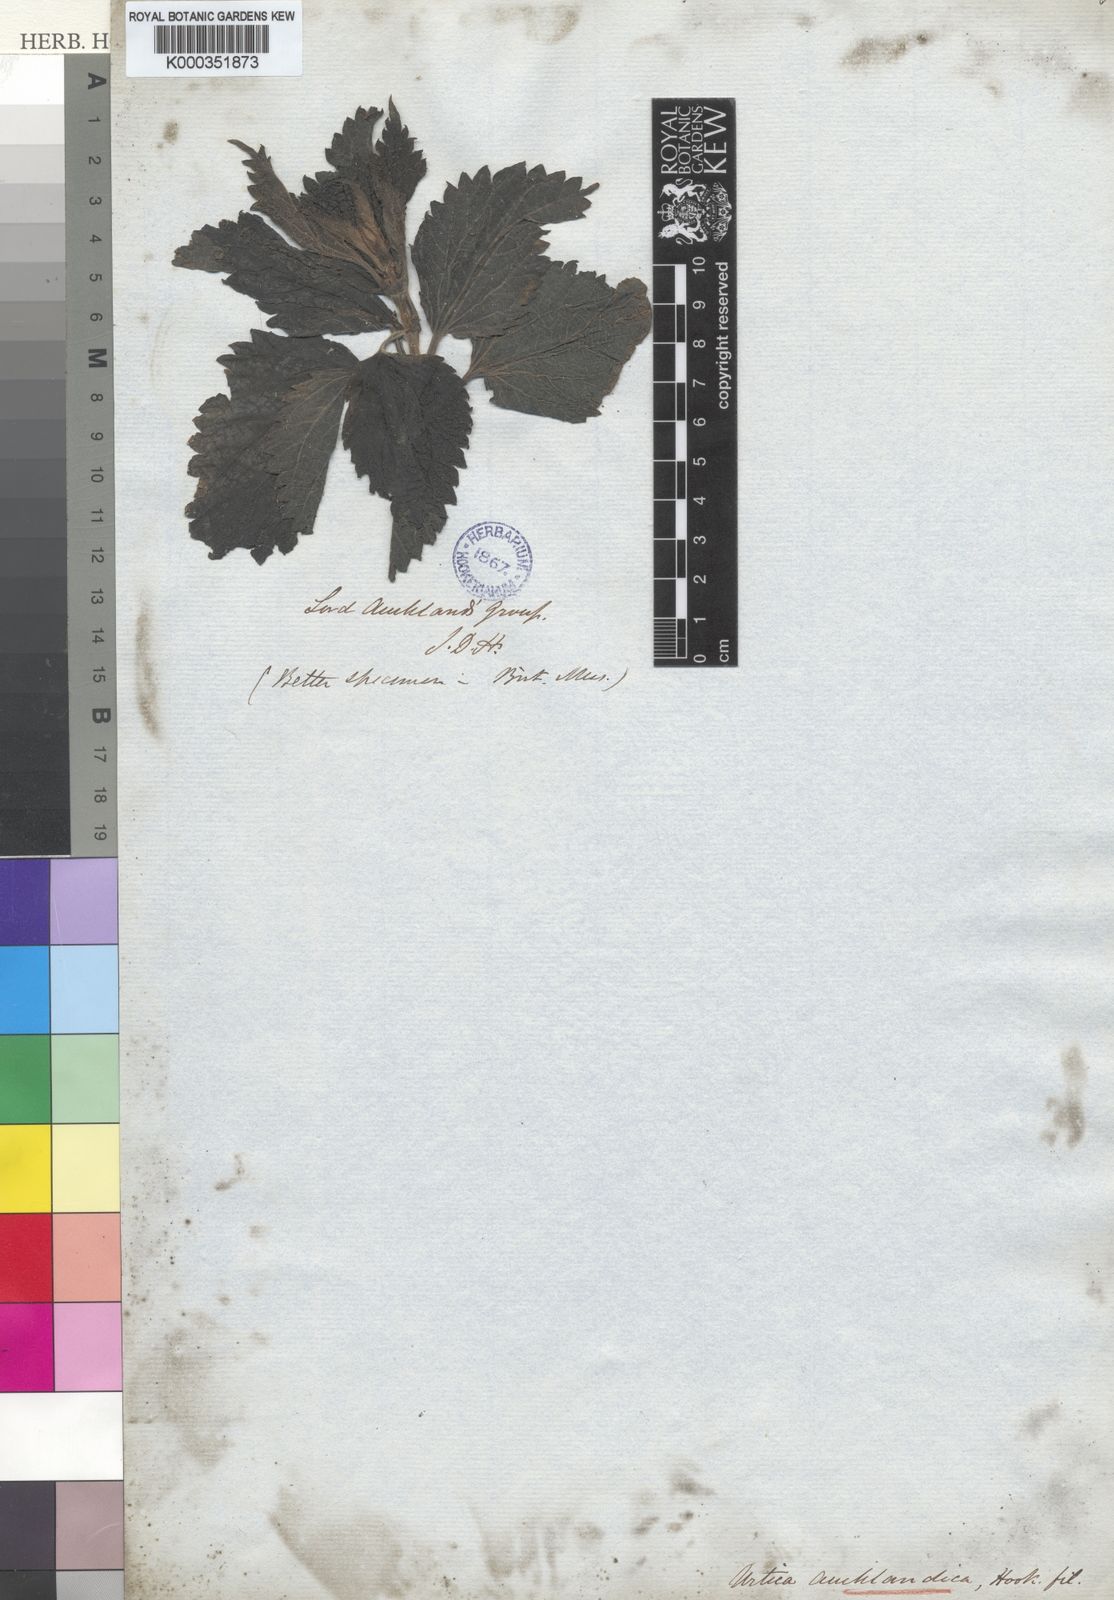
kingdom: Plantae
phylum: Tracheophyta
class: Magnoliopsida
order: Rosales
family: Urticaceae
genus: Urtica
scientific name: Urtica australis
